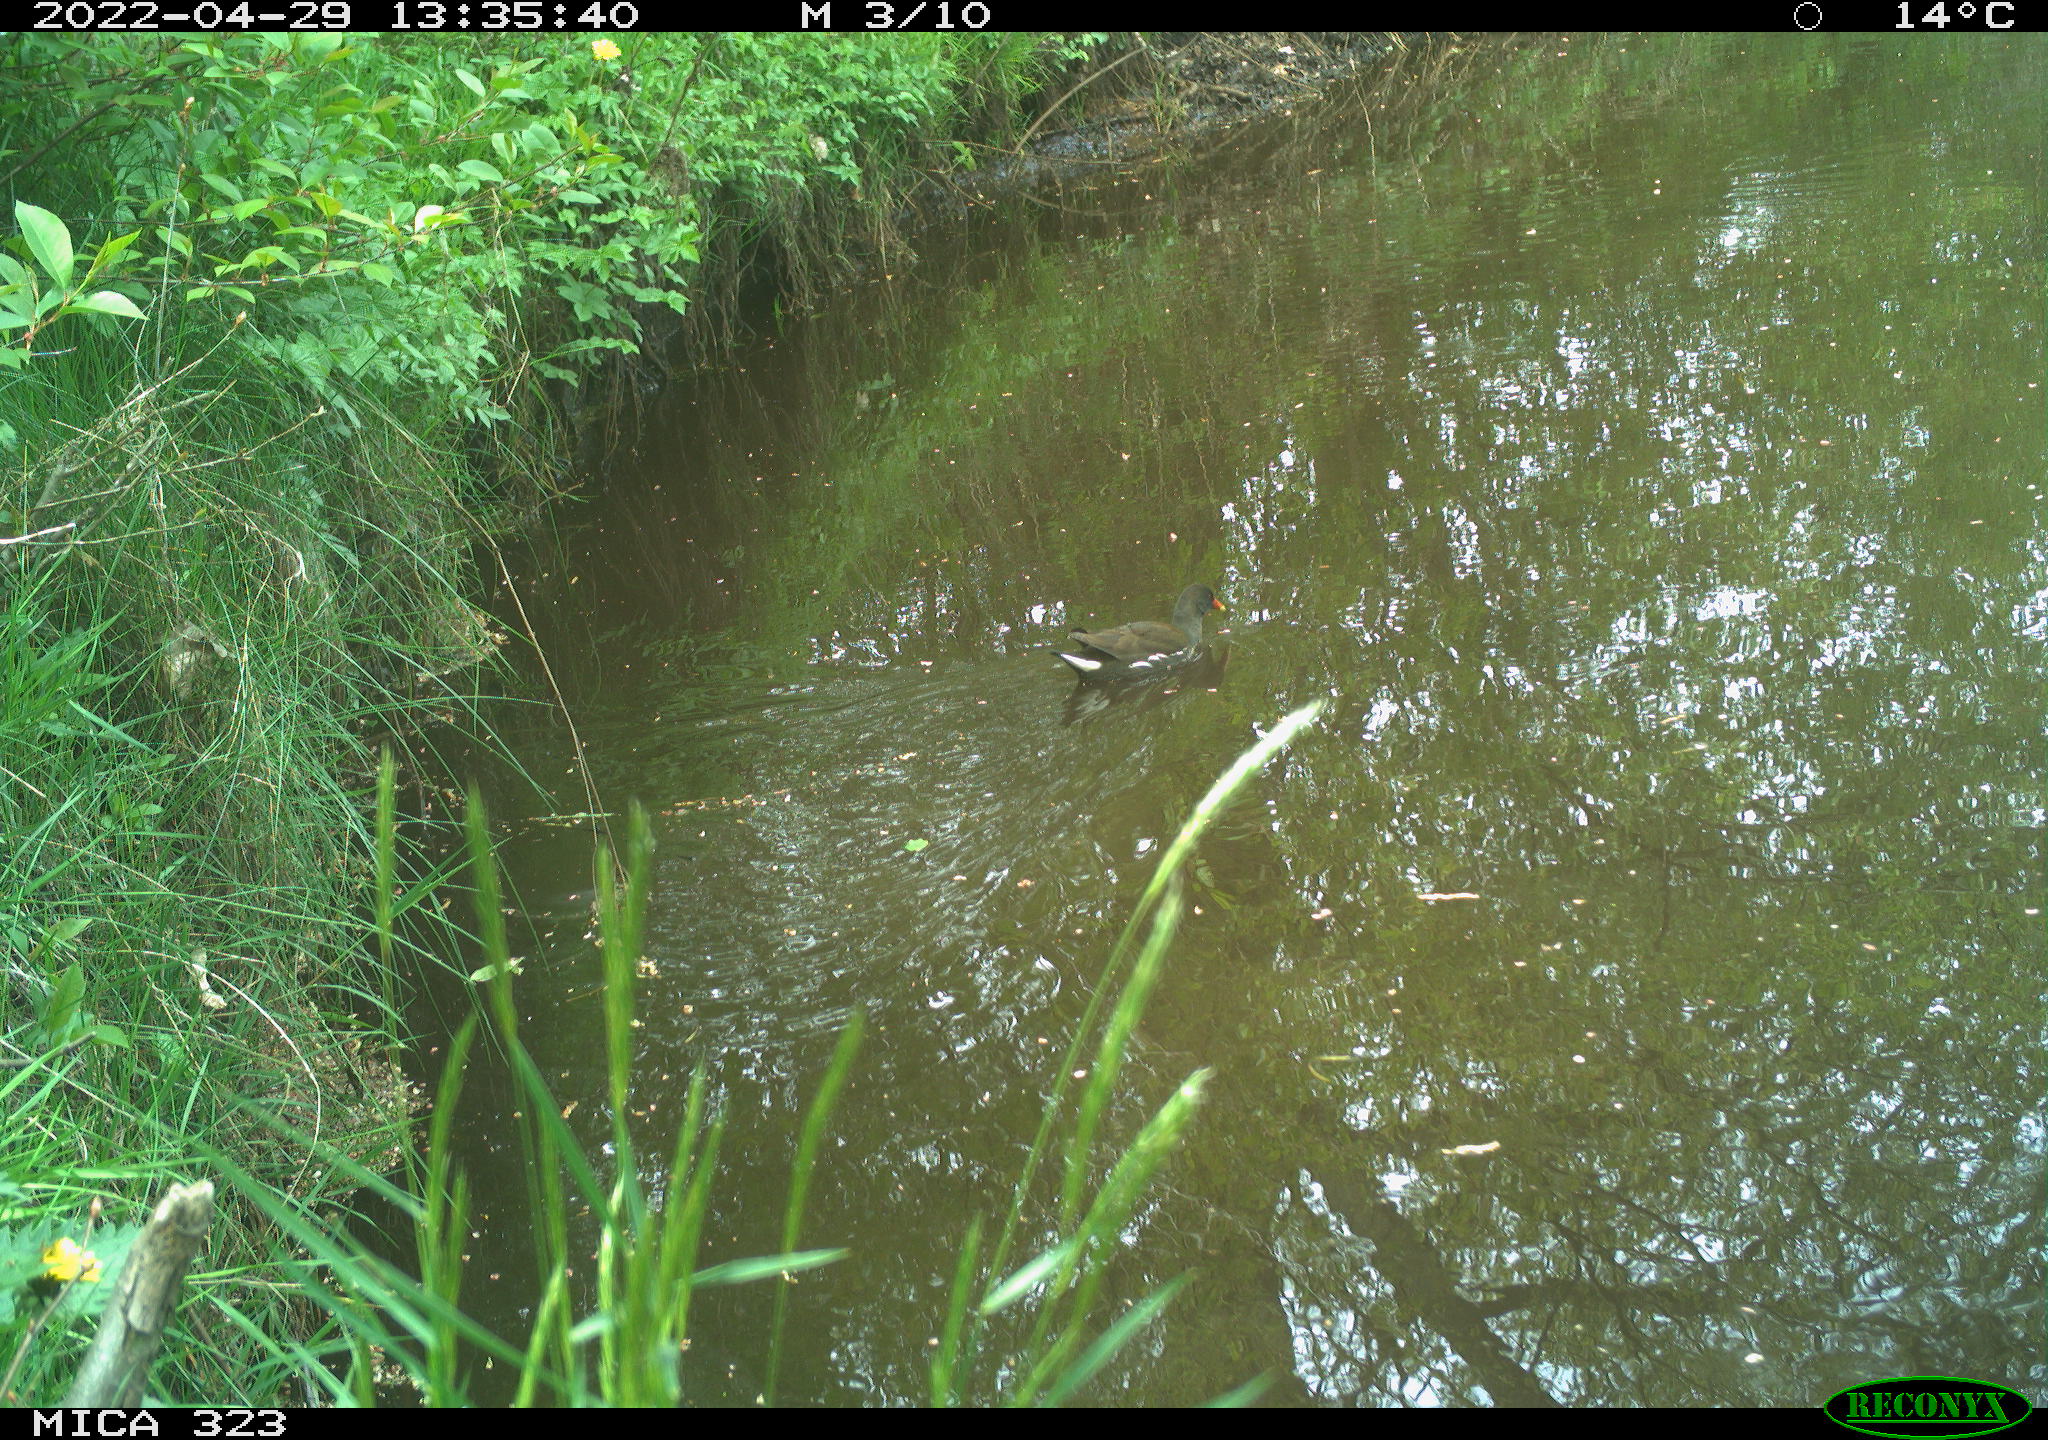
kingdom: Animalia
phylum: Chordata
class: Aves
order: Gruiformes
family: Rallidae
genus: Gallinula
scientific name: Gallinula chloropus
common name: Common moorhen
